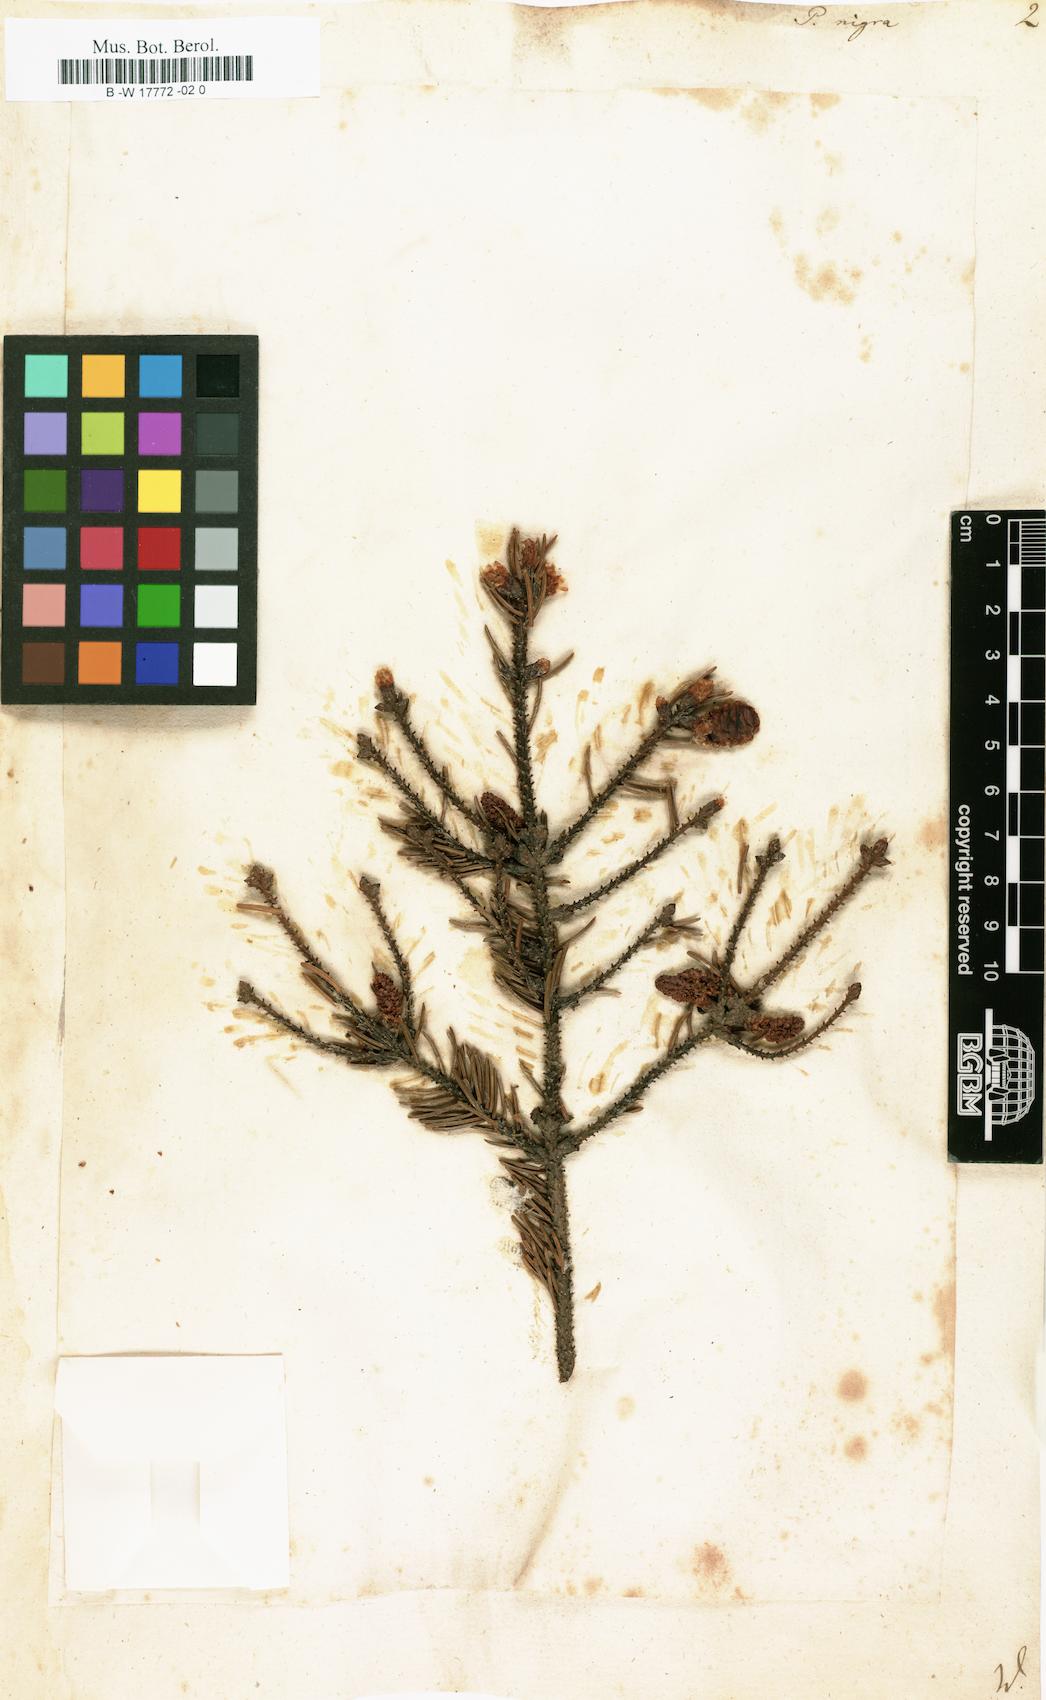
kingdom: Plantae
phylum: Tracheophyta
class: Pinopsida
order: Pinales
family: Pinaceae
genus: Pinus
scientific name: Pinus nigra
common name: Austrian pine
